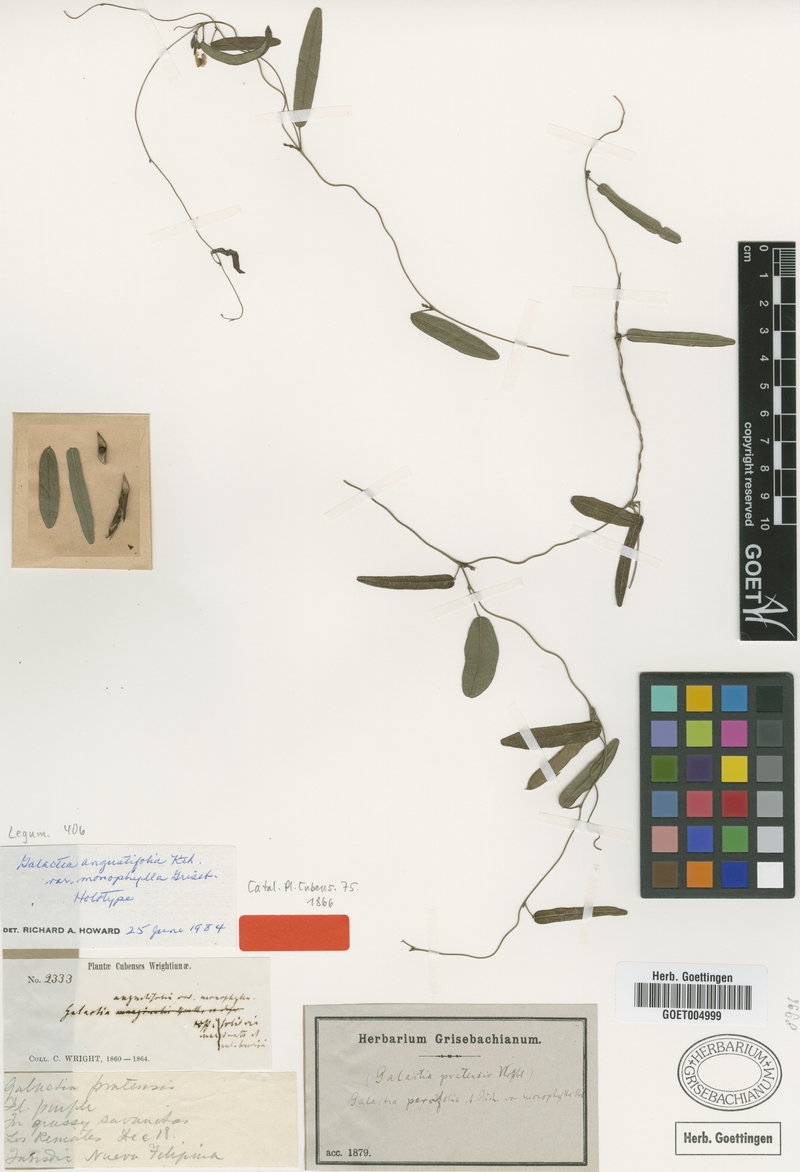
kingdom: Plantae
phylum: Tracheophyta
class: Magnoliopsida
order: Fabales
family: Fabaceae
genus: Galactia
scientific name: Galactia parvifolia
